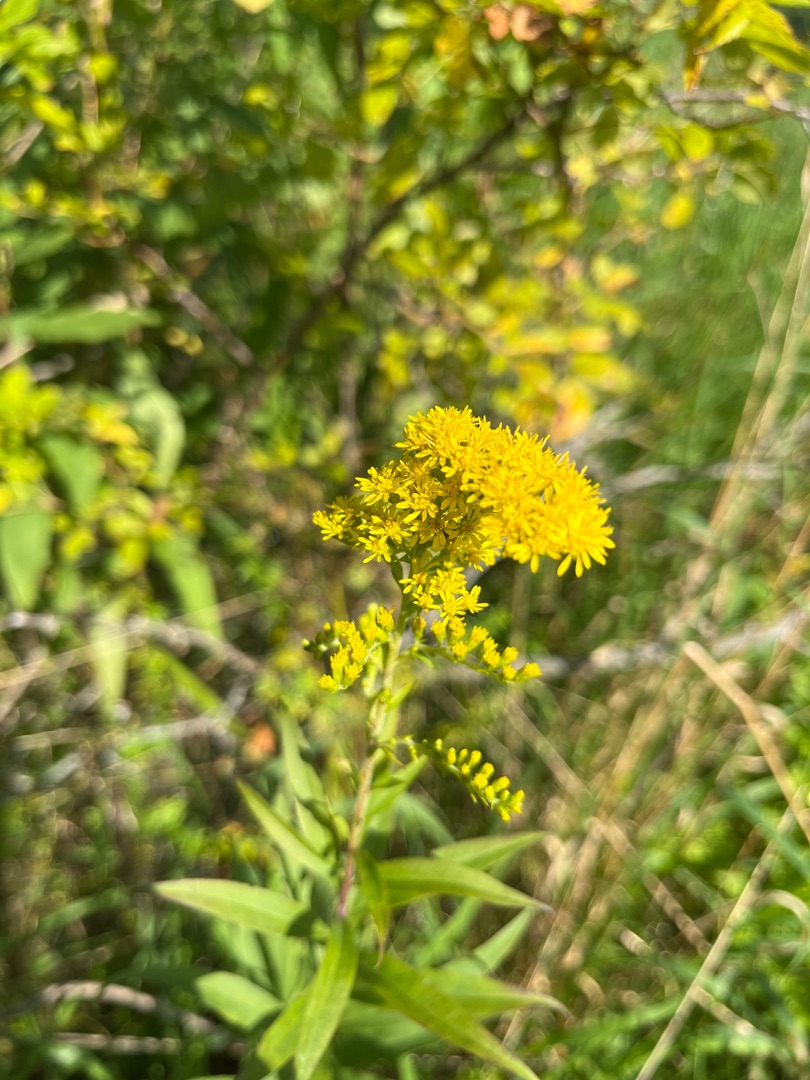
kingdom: Plantae
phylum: Tracheophyta
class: Magnoliopsida
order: Asterales
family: Asteraceae
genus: Solidago
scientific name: Solidago gigantea
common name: Sildig gyldenris
